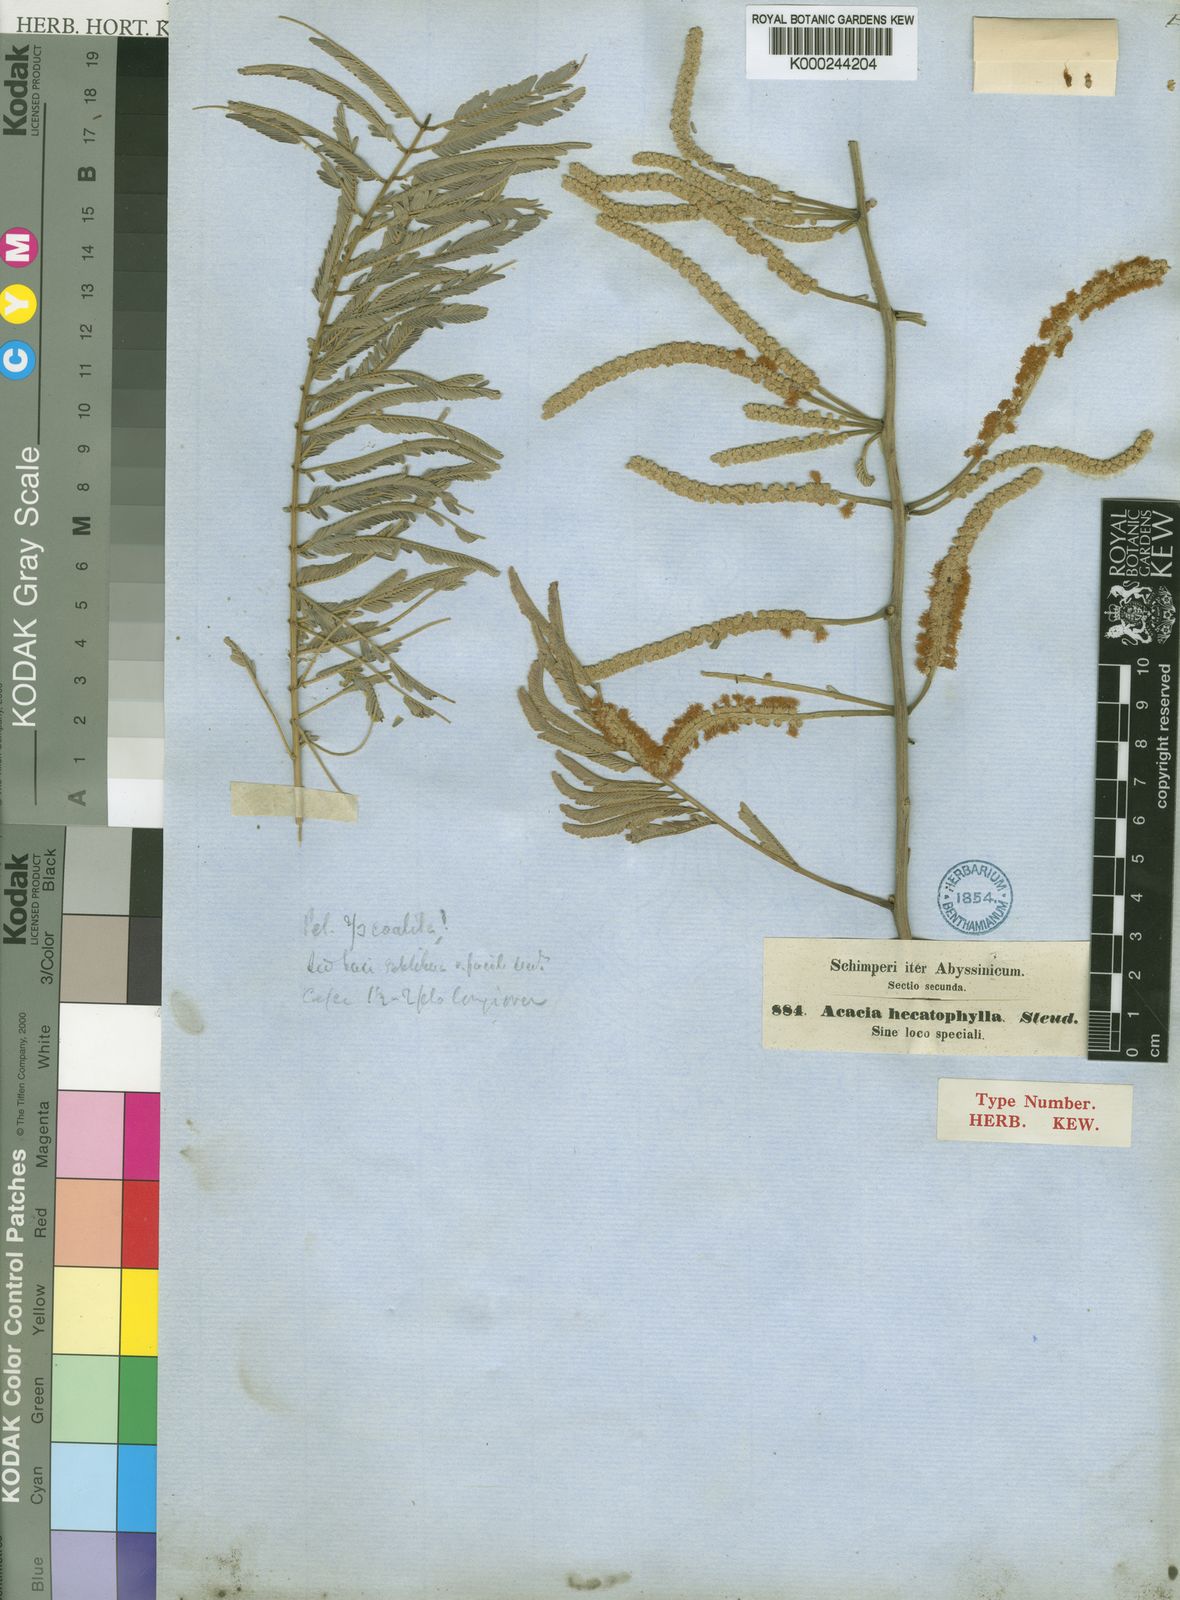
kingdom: Plantae
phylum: Tracheophyta
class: Magnoliopsida
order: Fabales
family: Fabaceae
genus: Senegalia
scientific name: Senegalia hecatophylla
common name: Long pod
